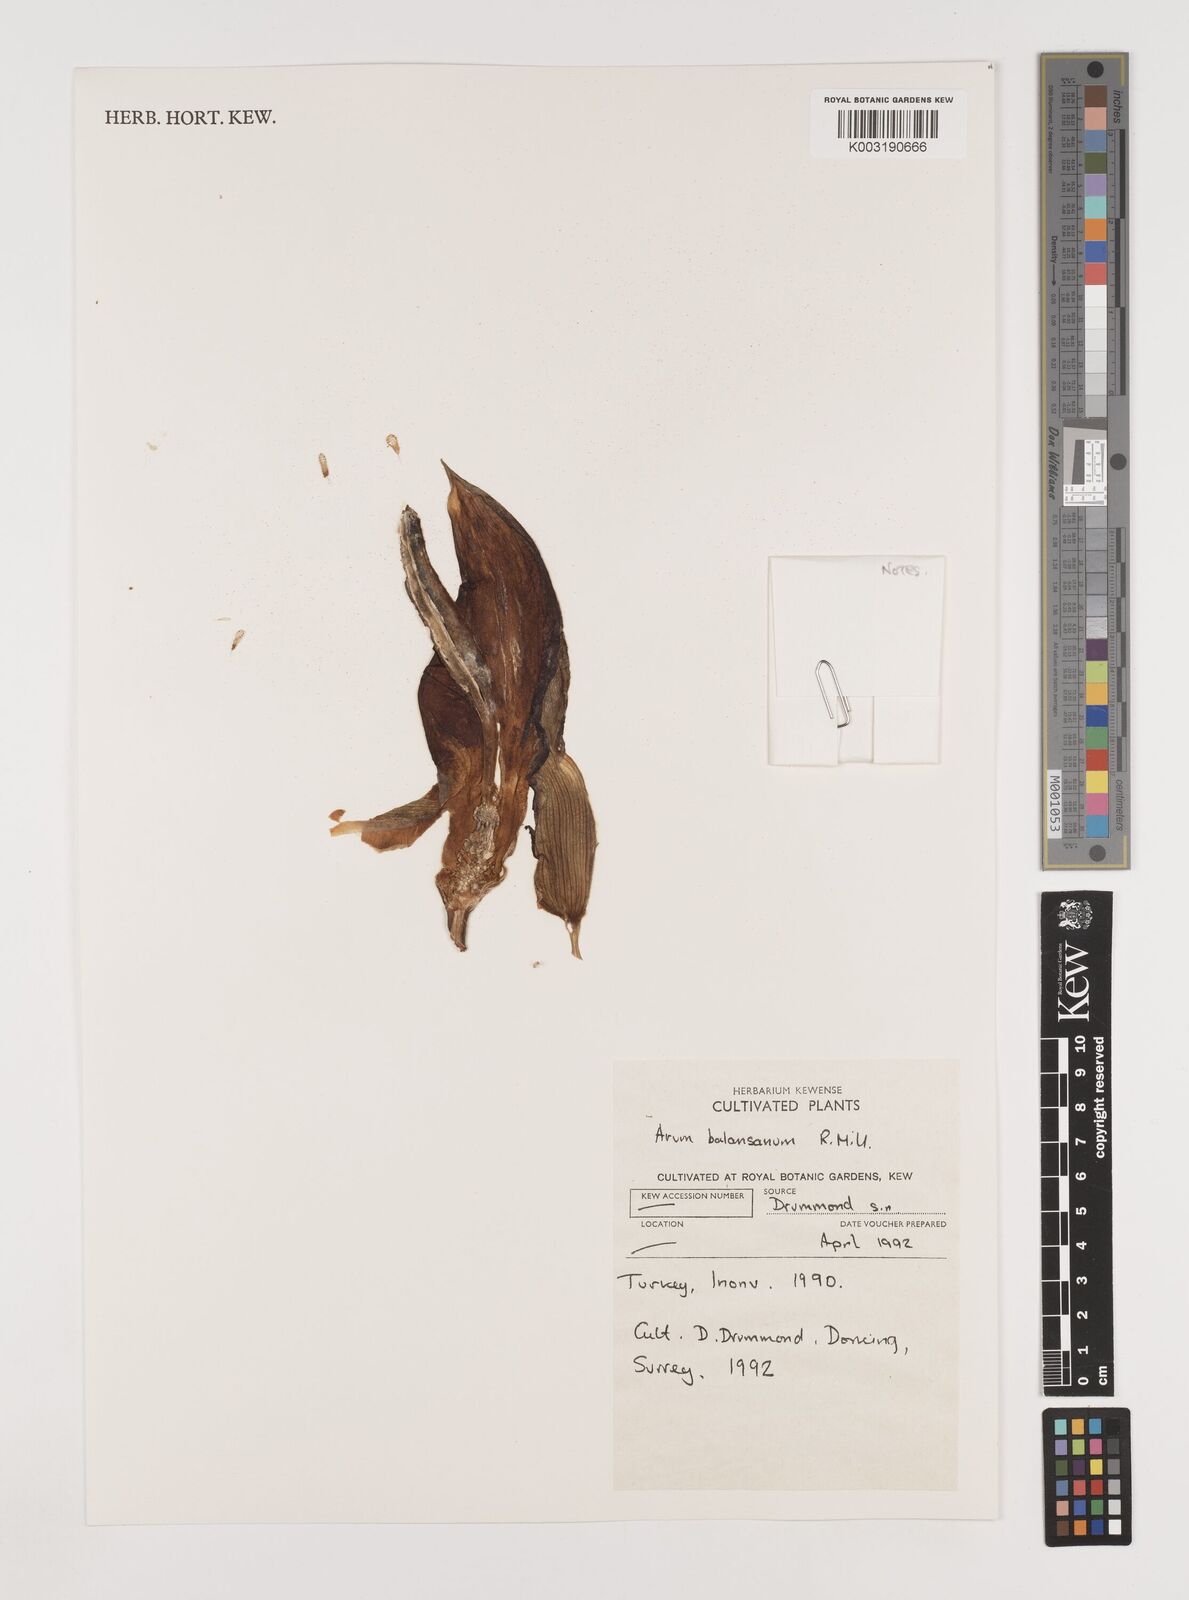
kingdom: Plantae
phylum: Tracheophyta
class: Liliopsida
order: Alismatales
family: Araceae
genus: Arum
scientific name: Arum orientale
